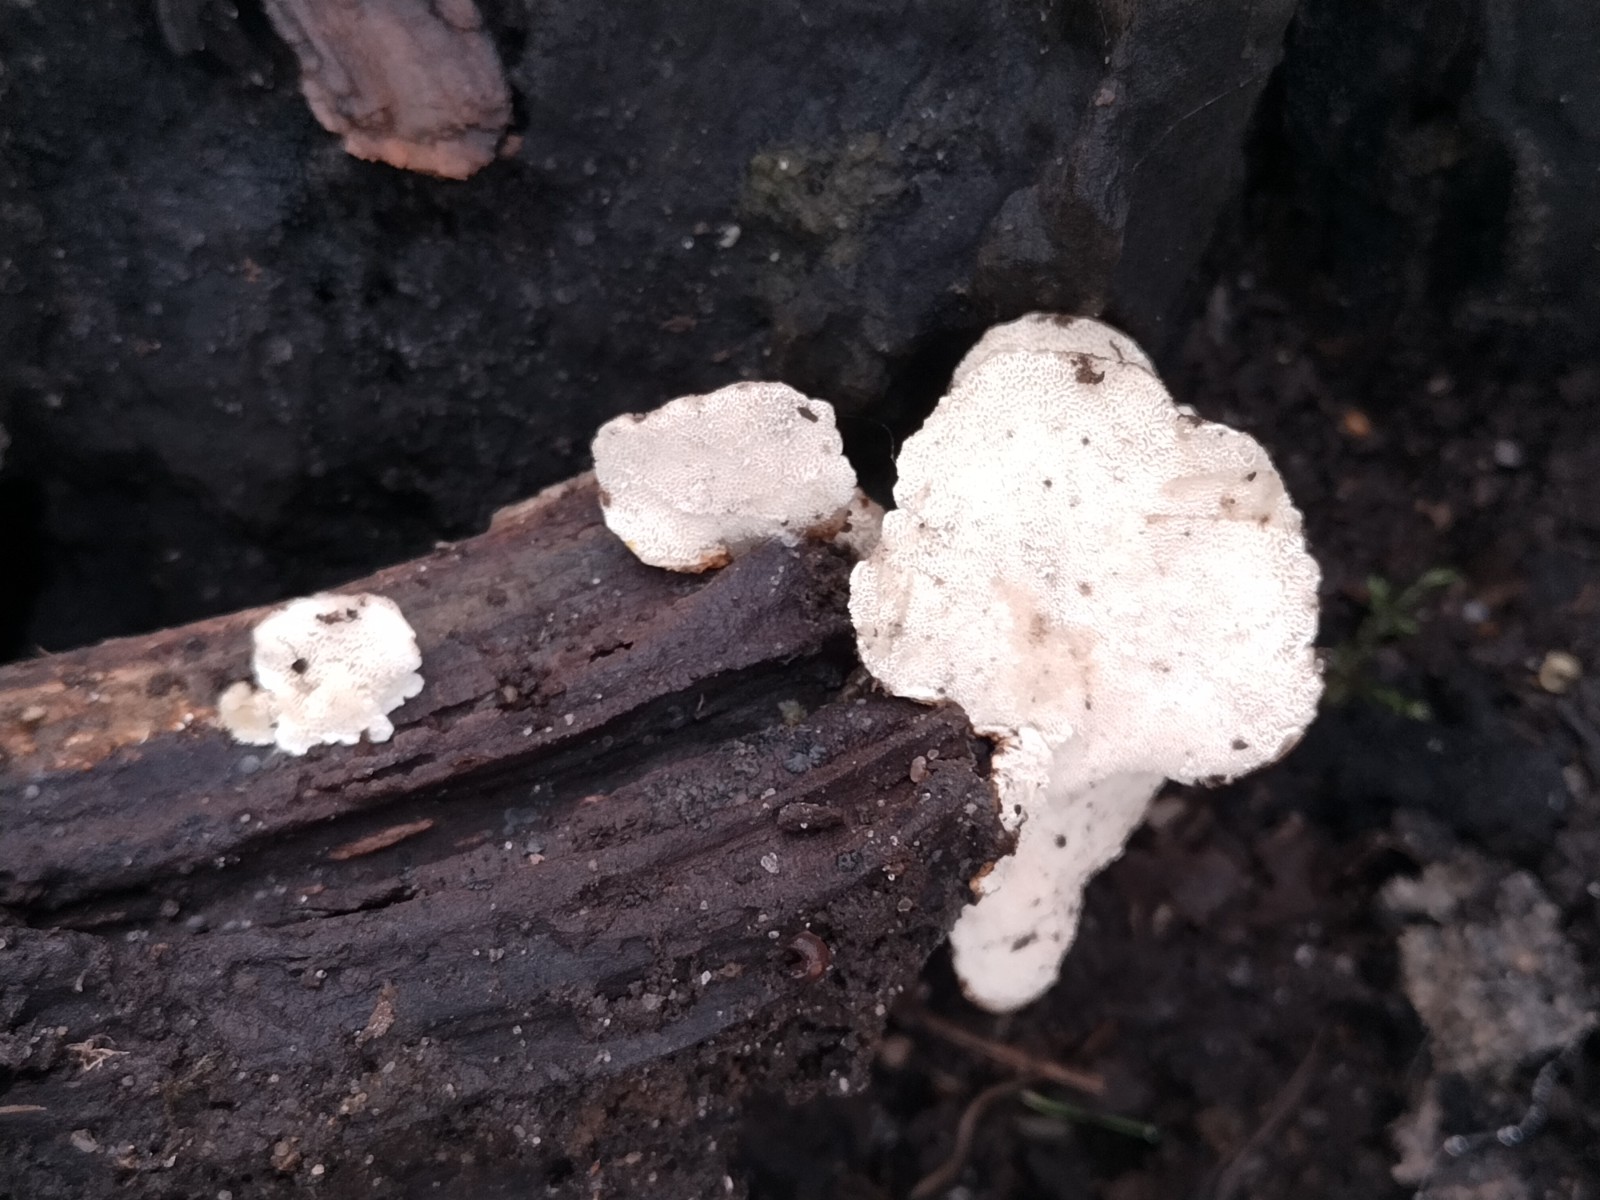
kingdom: Fungi
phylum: Basidiomycota
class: Agaricomycetes
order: Polyporales
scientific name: Polyporales
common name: poresvampordenen
